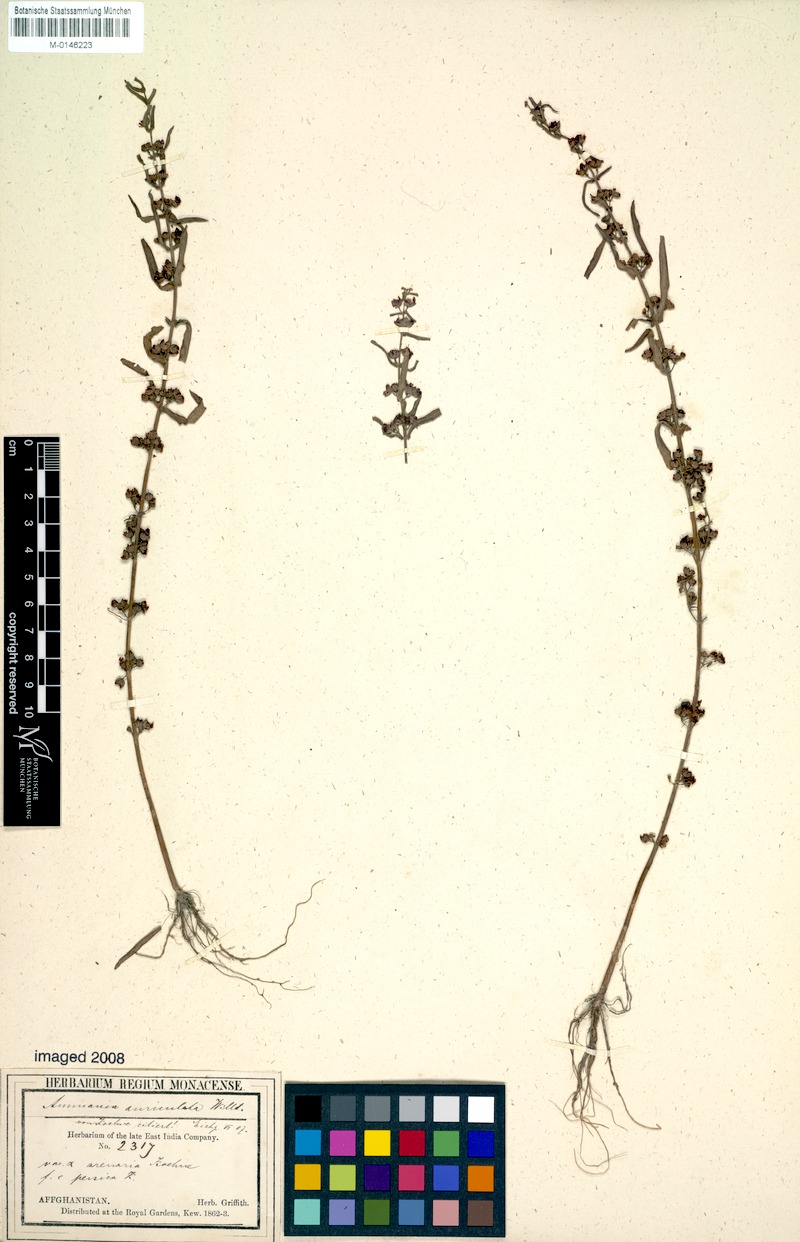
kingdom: Plantae
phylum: Tracheophyta
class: Magnoliopsida
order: Myrtales
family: Lythraceae
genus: Ammannia
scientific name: Ammannia auriculata
